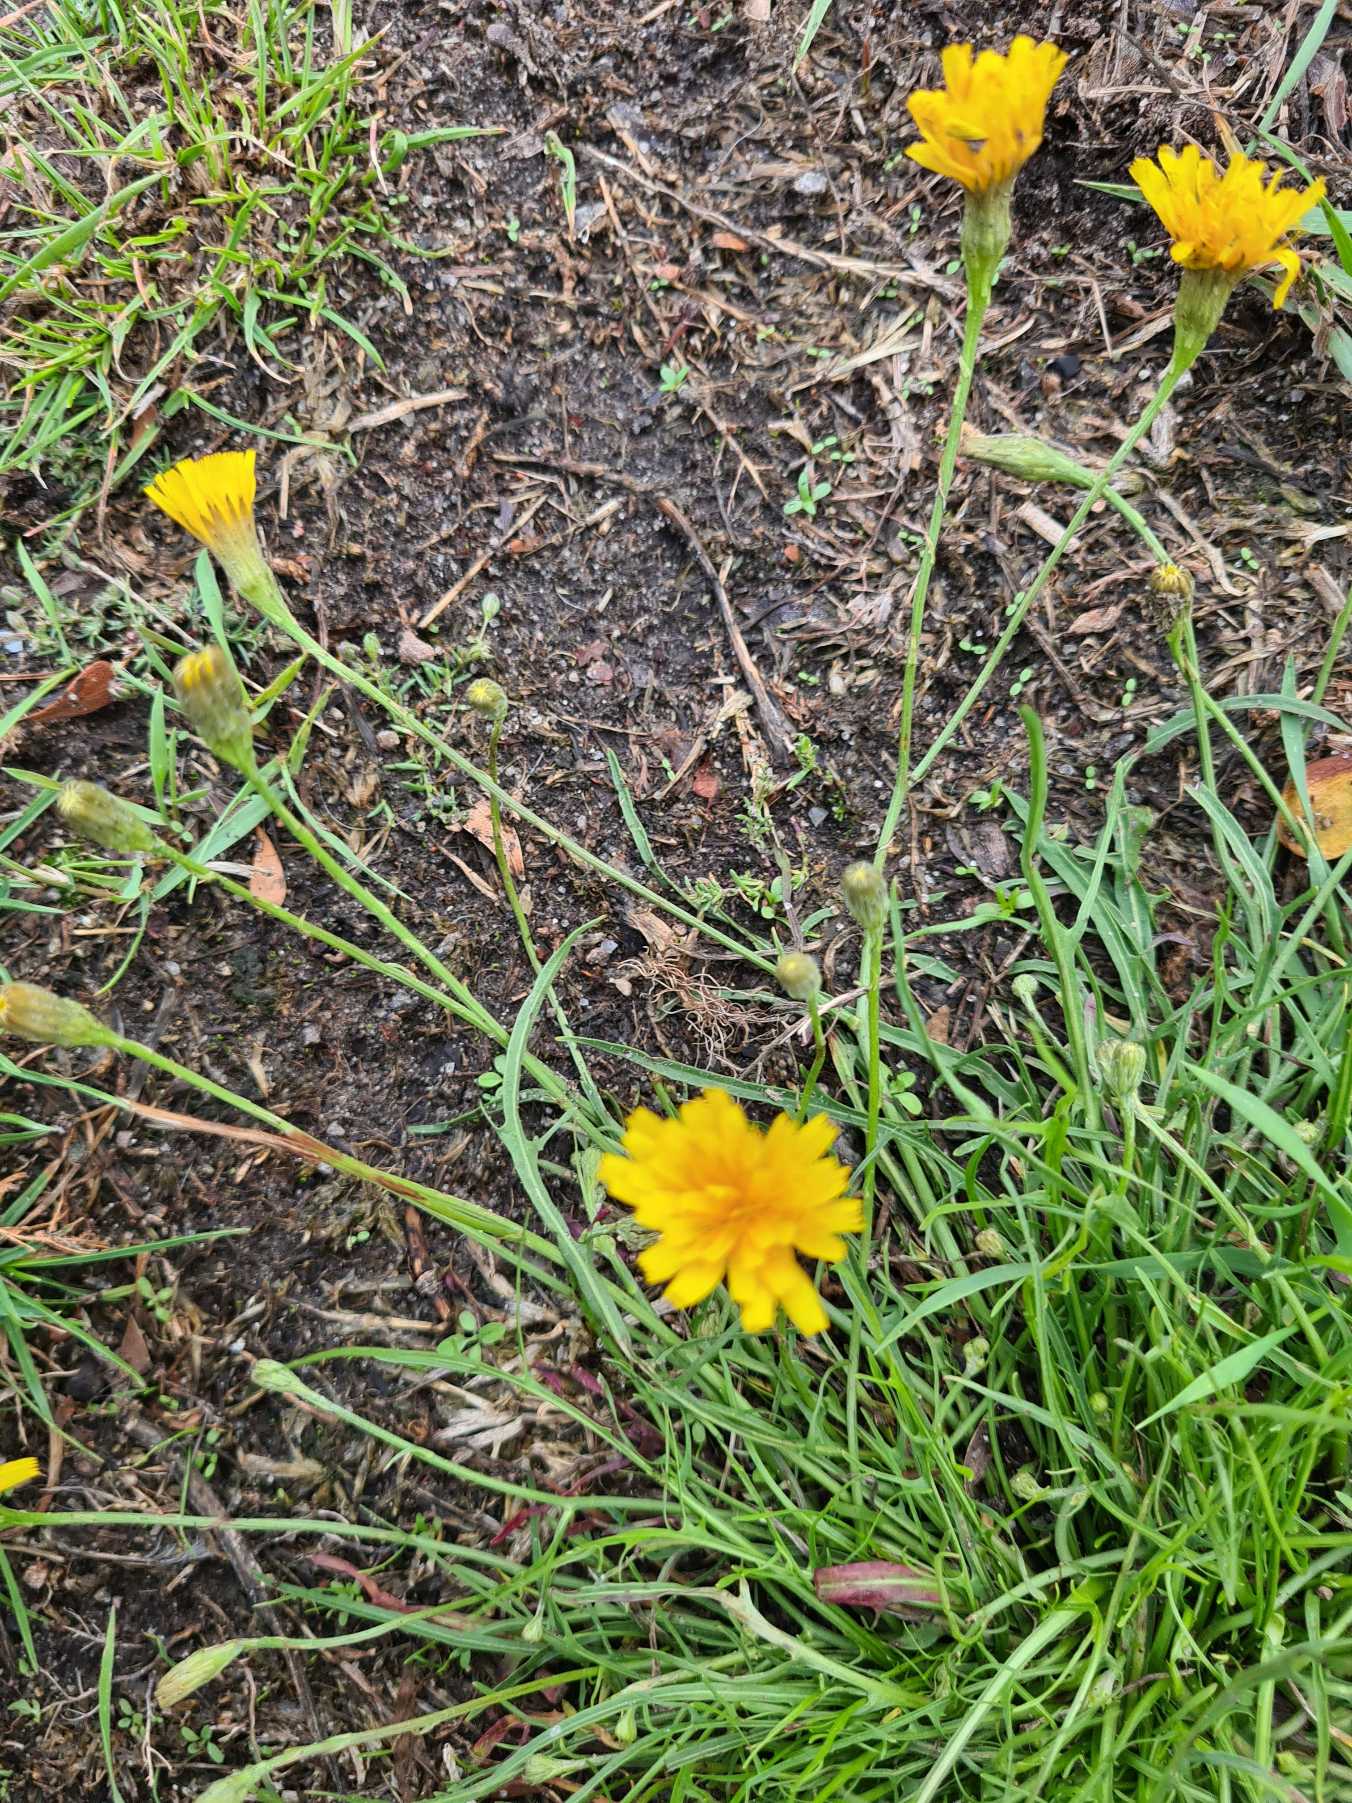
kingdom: Plantae
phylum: Tracheophyta
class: Magnoliopsida
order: Asterales
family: Asteraceae
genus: Scorzoneroides
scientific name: Scorzoneroides autumnalis
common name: Høst-borst
